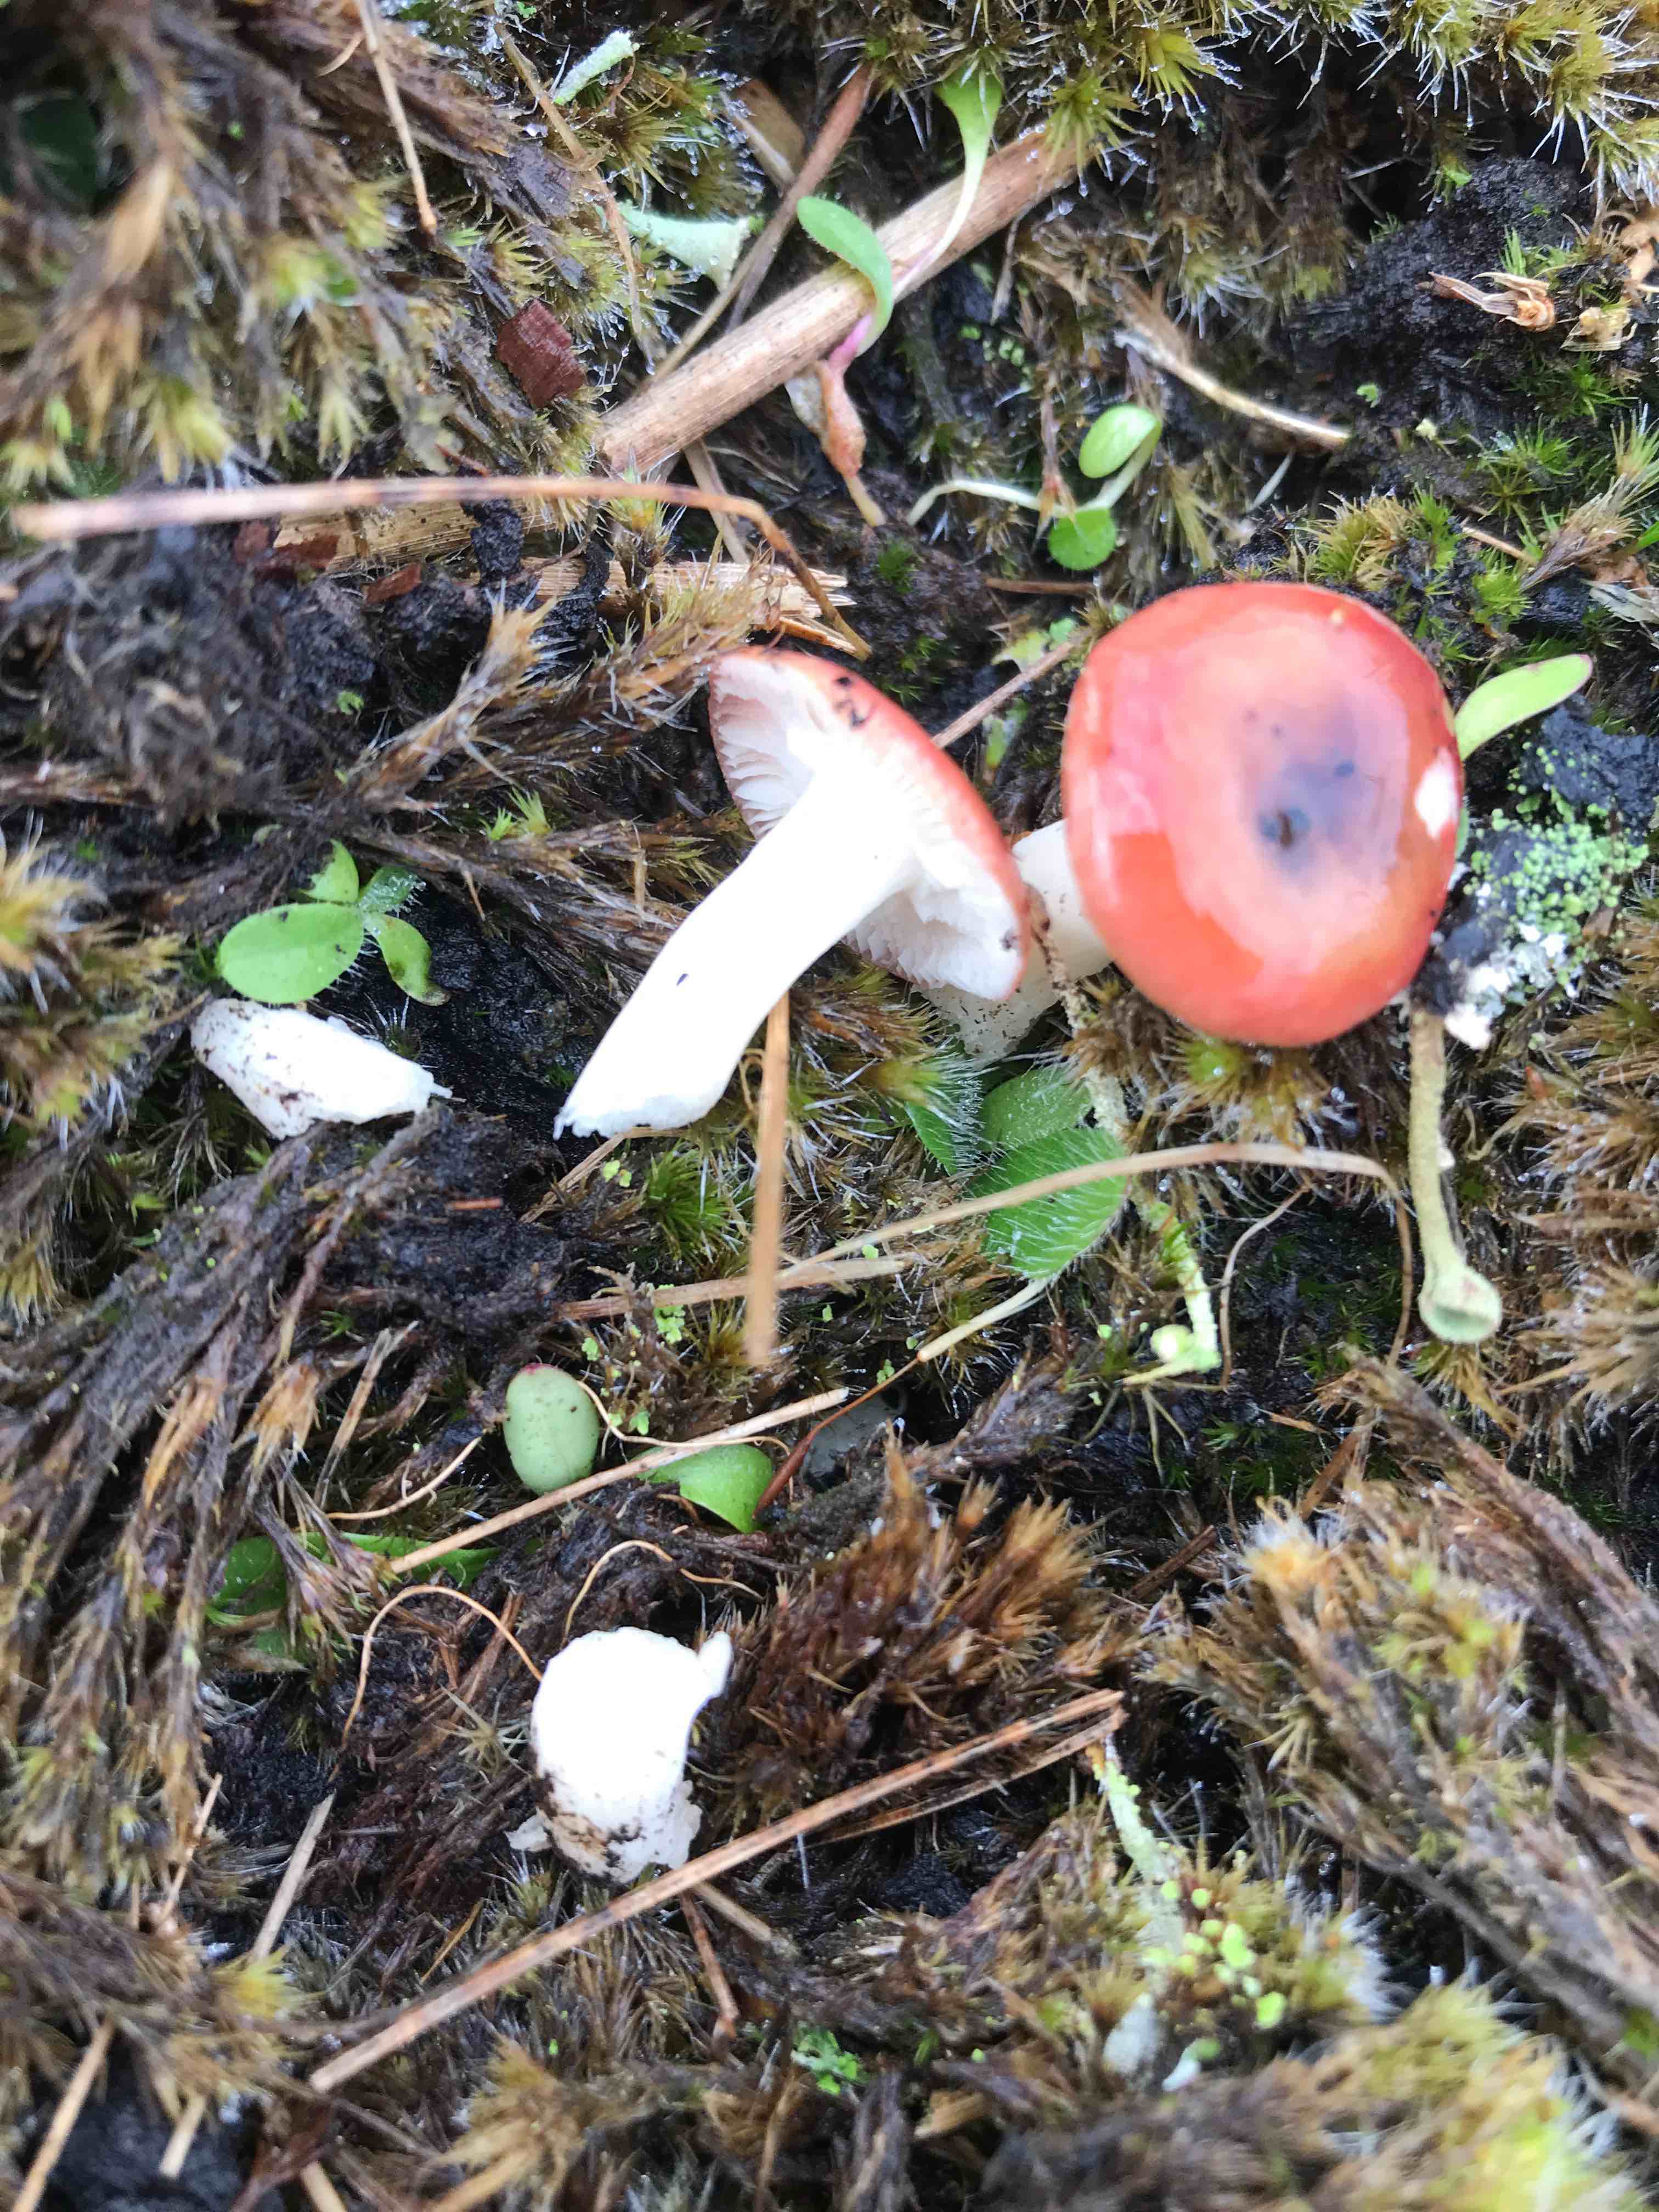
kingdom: Fungi
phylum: Basidiomycota
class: Agaricomycetes
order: Russulales
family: Russulaceae
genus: Russula
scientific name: Russula
